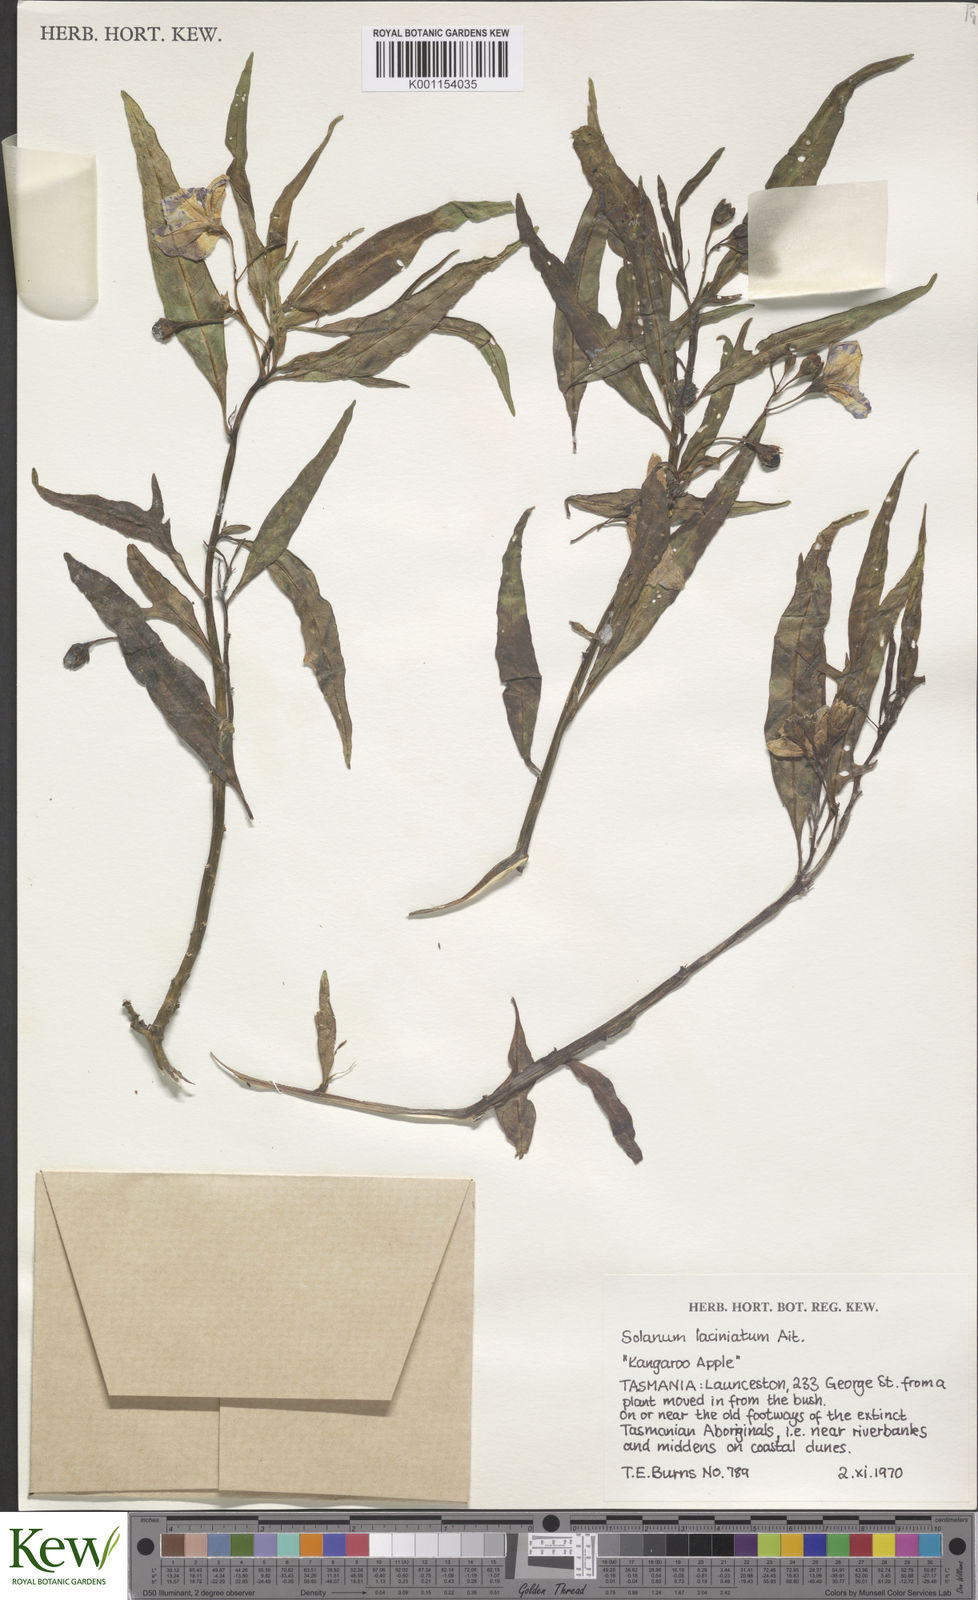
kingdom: Plantae
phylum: Tracheophyta
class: Magnoliopsida
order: Solanales
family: Solanaceae
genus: Solanum
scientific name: Solanum laciniatum
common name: Kangaroo-apple
